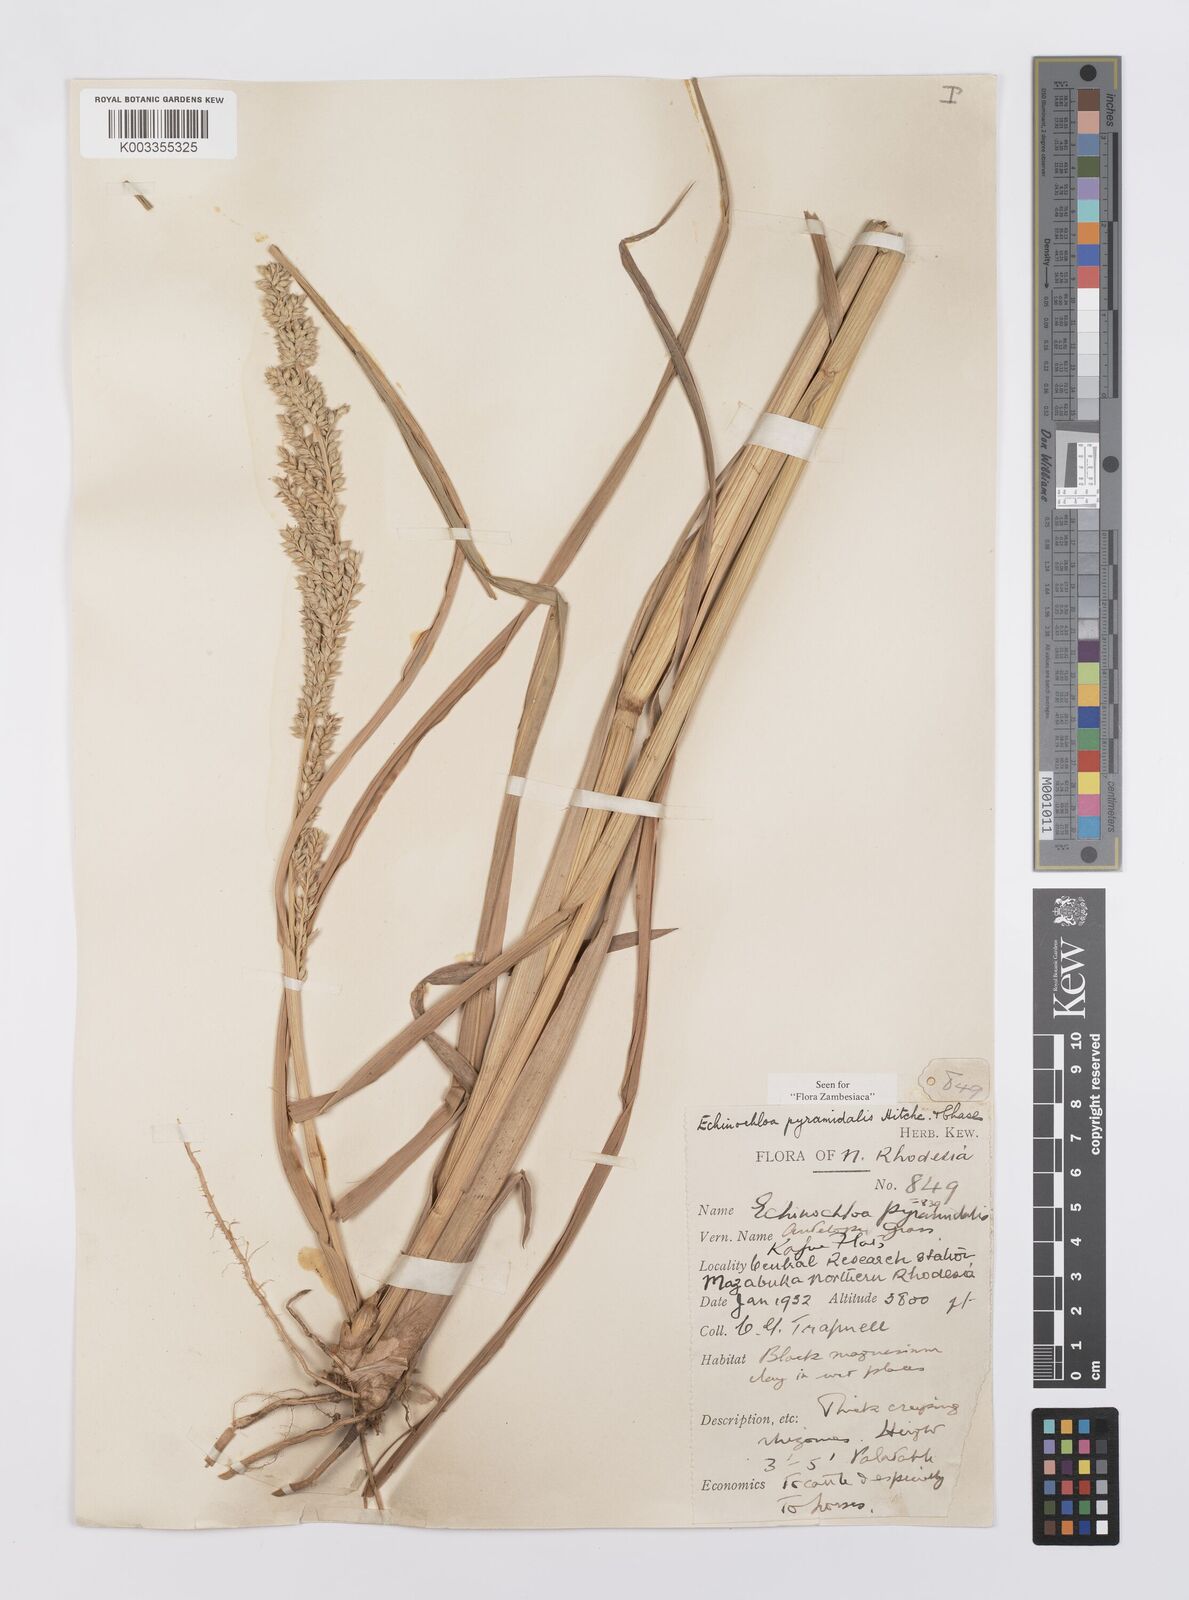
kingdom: Plantae
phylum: Tracheophyta
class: Liliopsida
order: Poales
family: Poaceae
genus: Echinochloa
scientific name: Echinochloa pyramidalis
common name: Antelope grass
